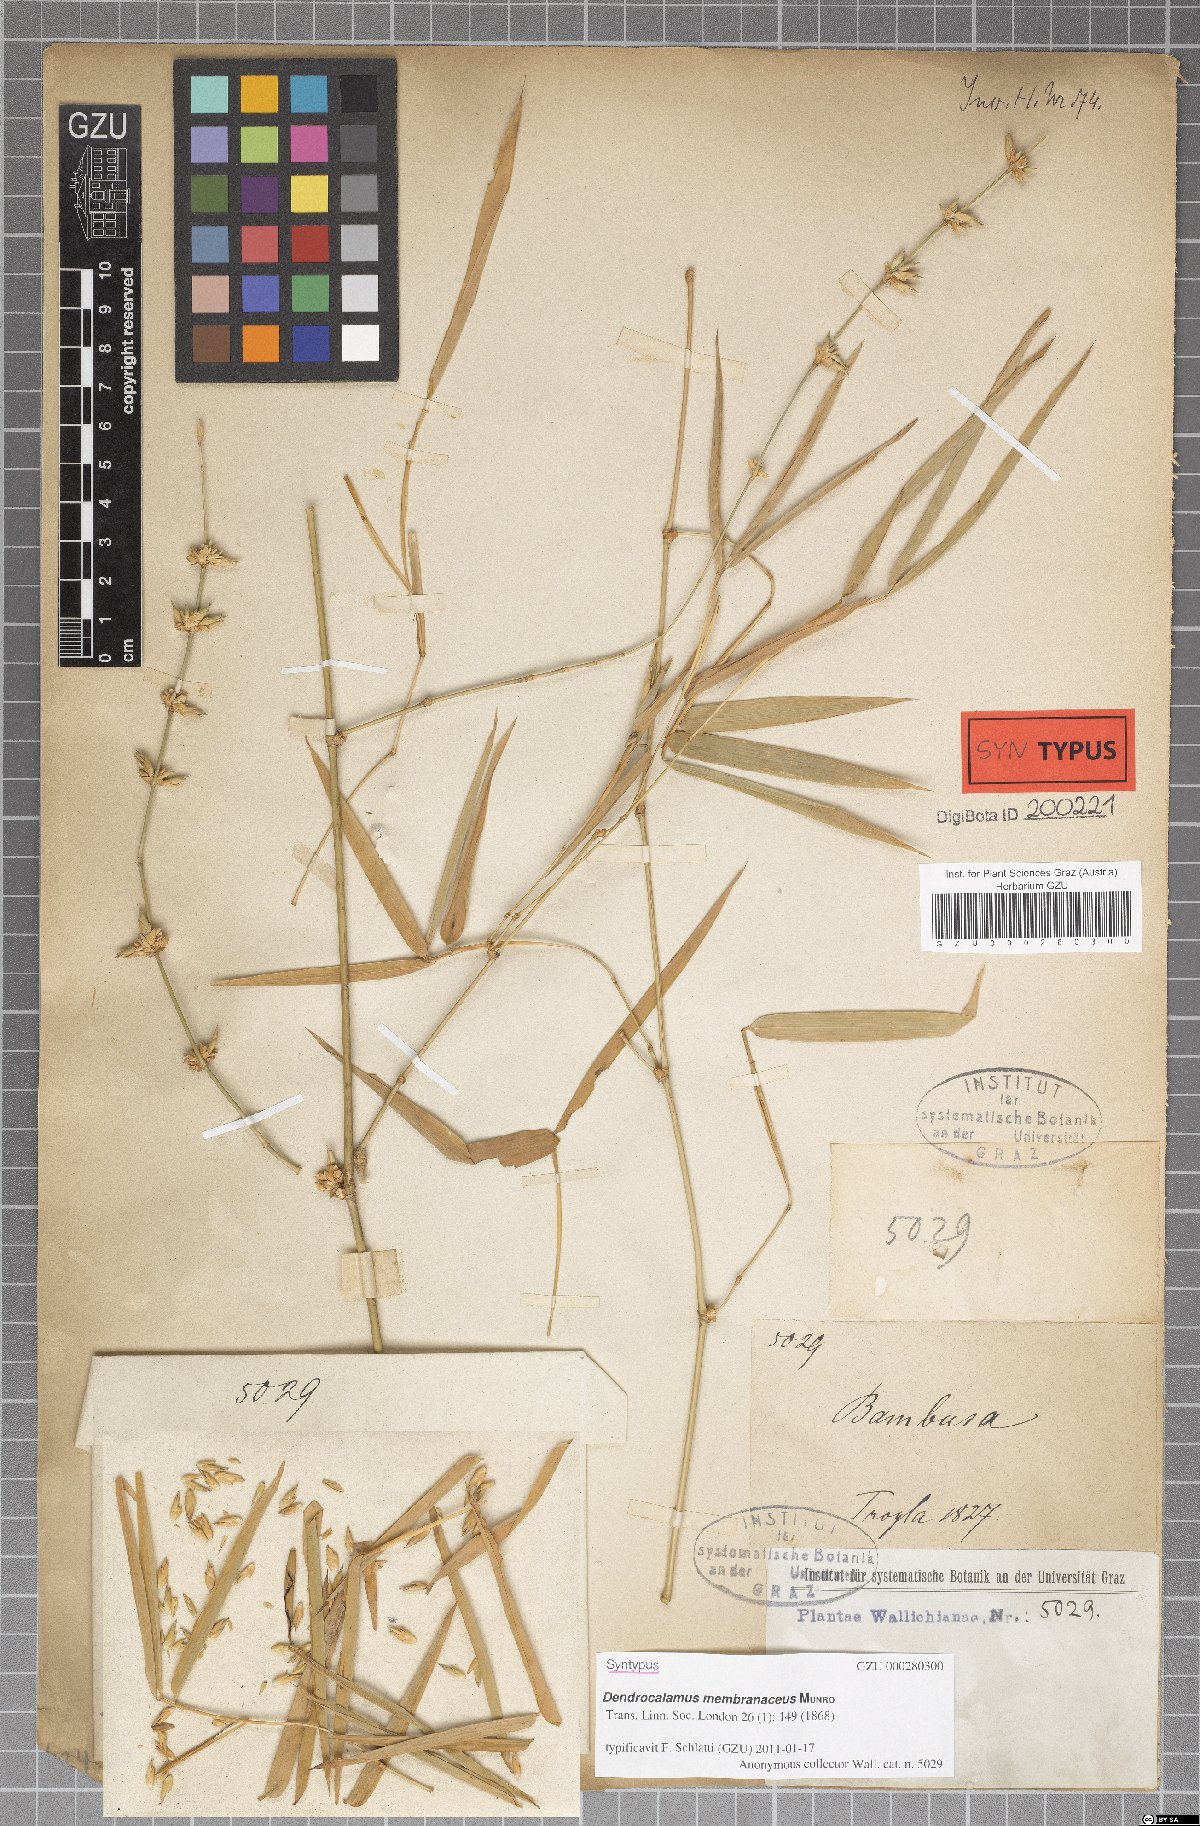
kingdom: Plantae
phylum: Tracheophyta
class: Liliopsida
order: Poales
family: Poaceae
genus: Dendrocalamus
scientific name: Dendrocalamus membranaceus
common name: White bamboo
